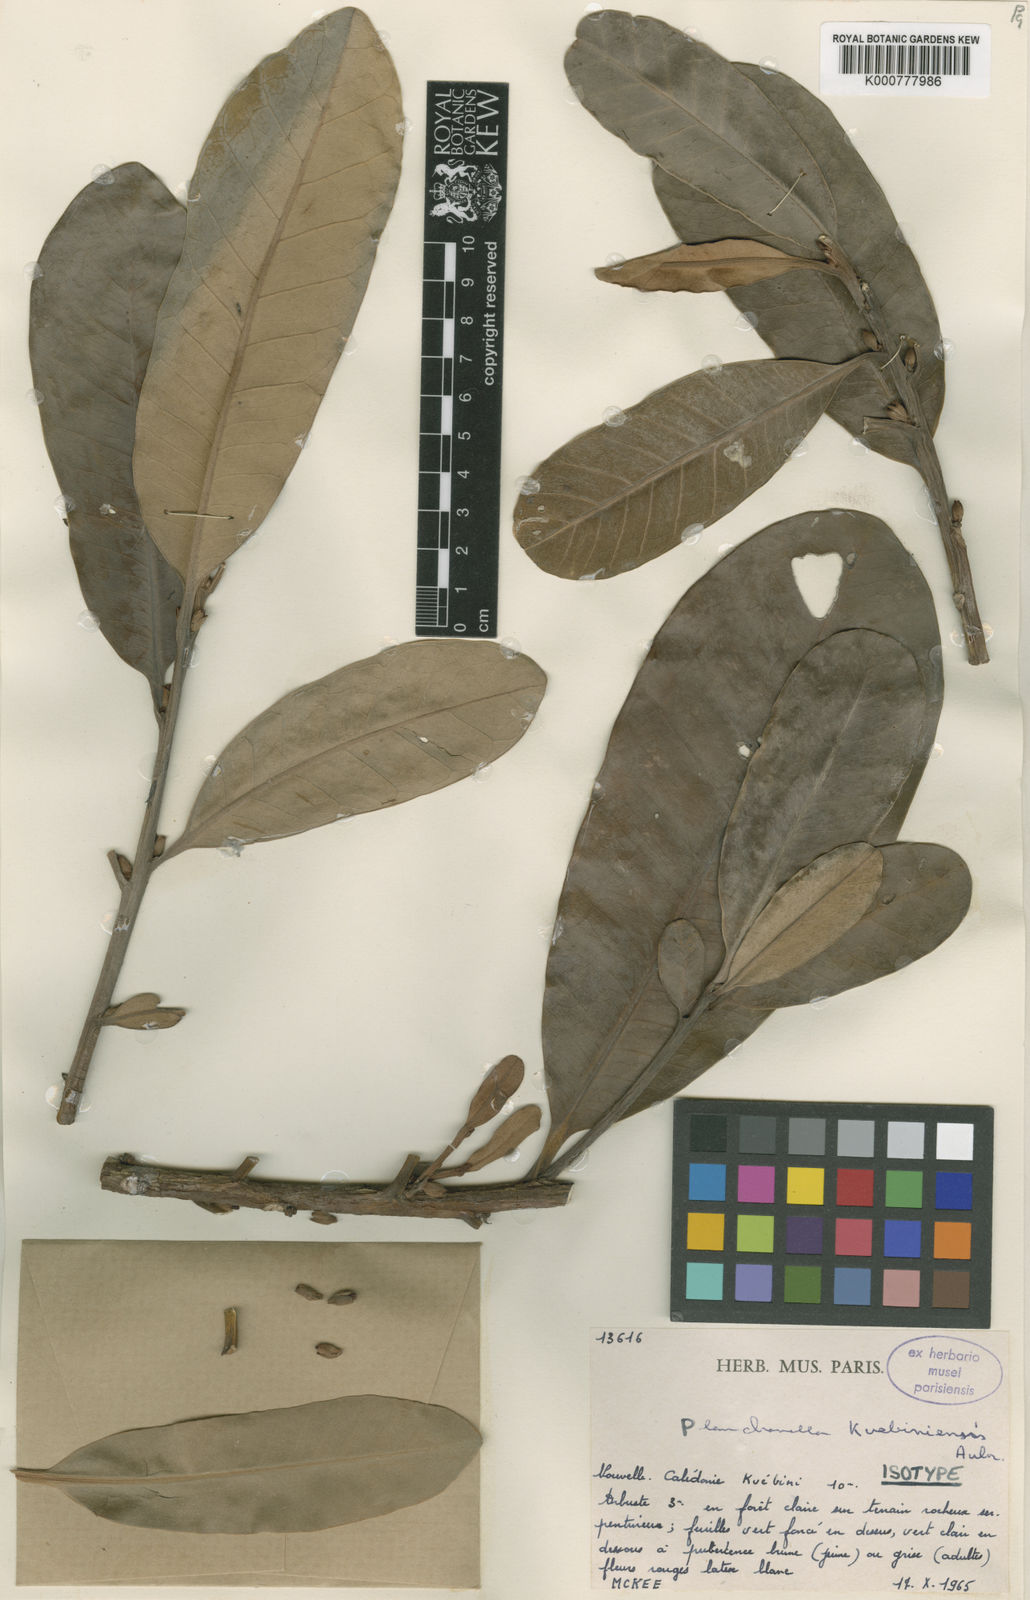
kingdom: Plantae
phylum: Tracheophyta
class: Magnoliopsida
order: Ericales
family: Sapotaceae
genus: Pouteria
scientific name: Pouteria
